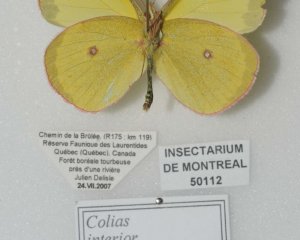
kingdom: Animalia
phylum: Arthropoda
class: Insecta
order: Lepidoptera
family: Pieridae
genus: Colias
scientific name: Colias interior
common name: Pink-edged Sulphur
